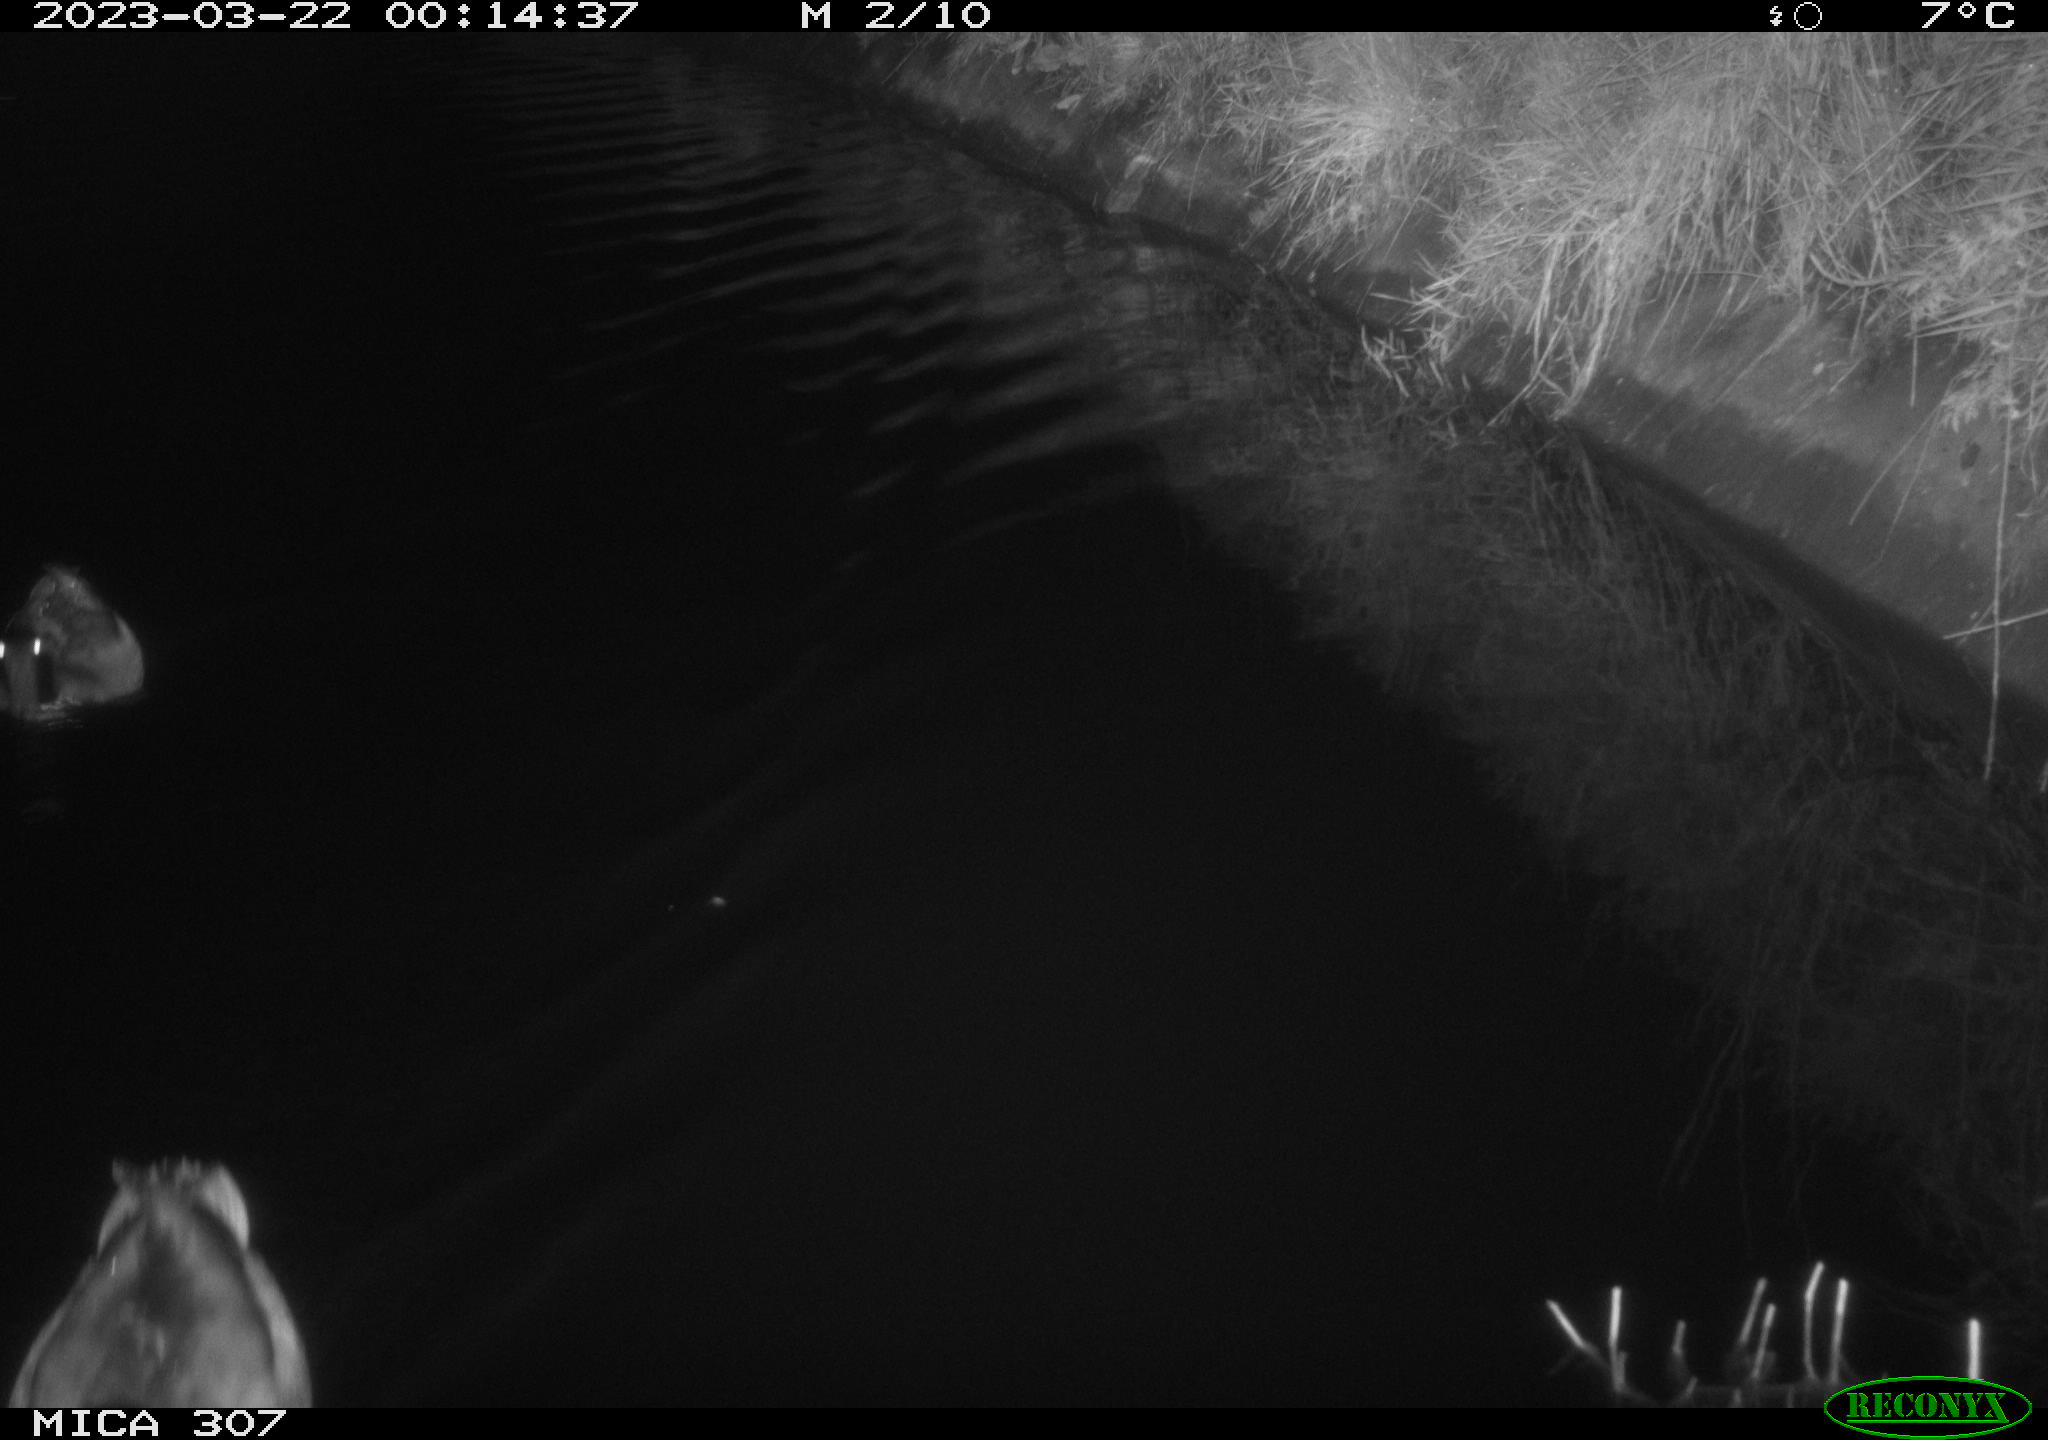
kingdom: Animalia
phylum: Chordata
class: Aves
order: Anseriformes
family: Anatidae
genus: Anas
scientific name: Anas
